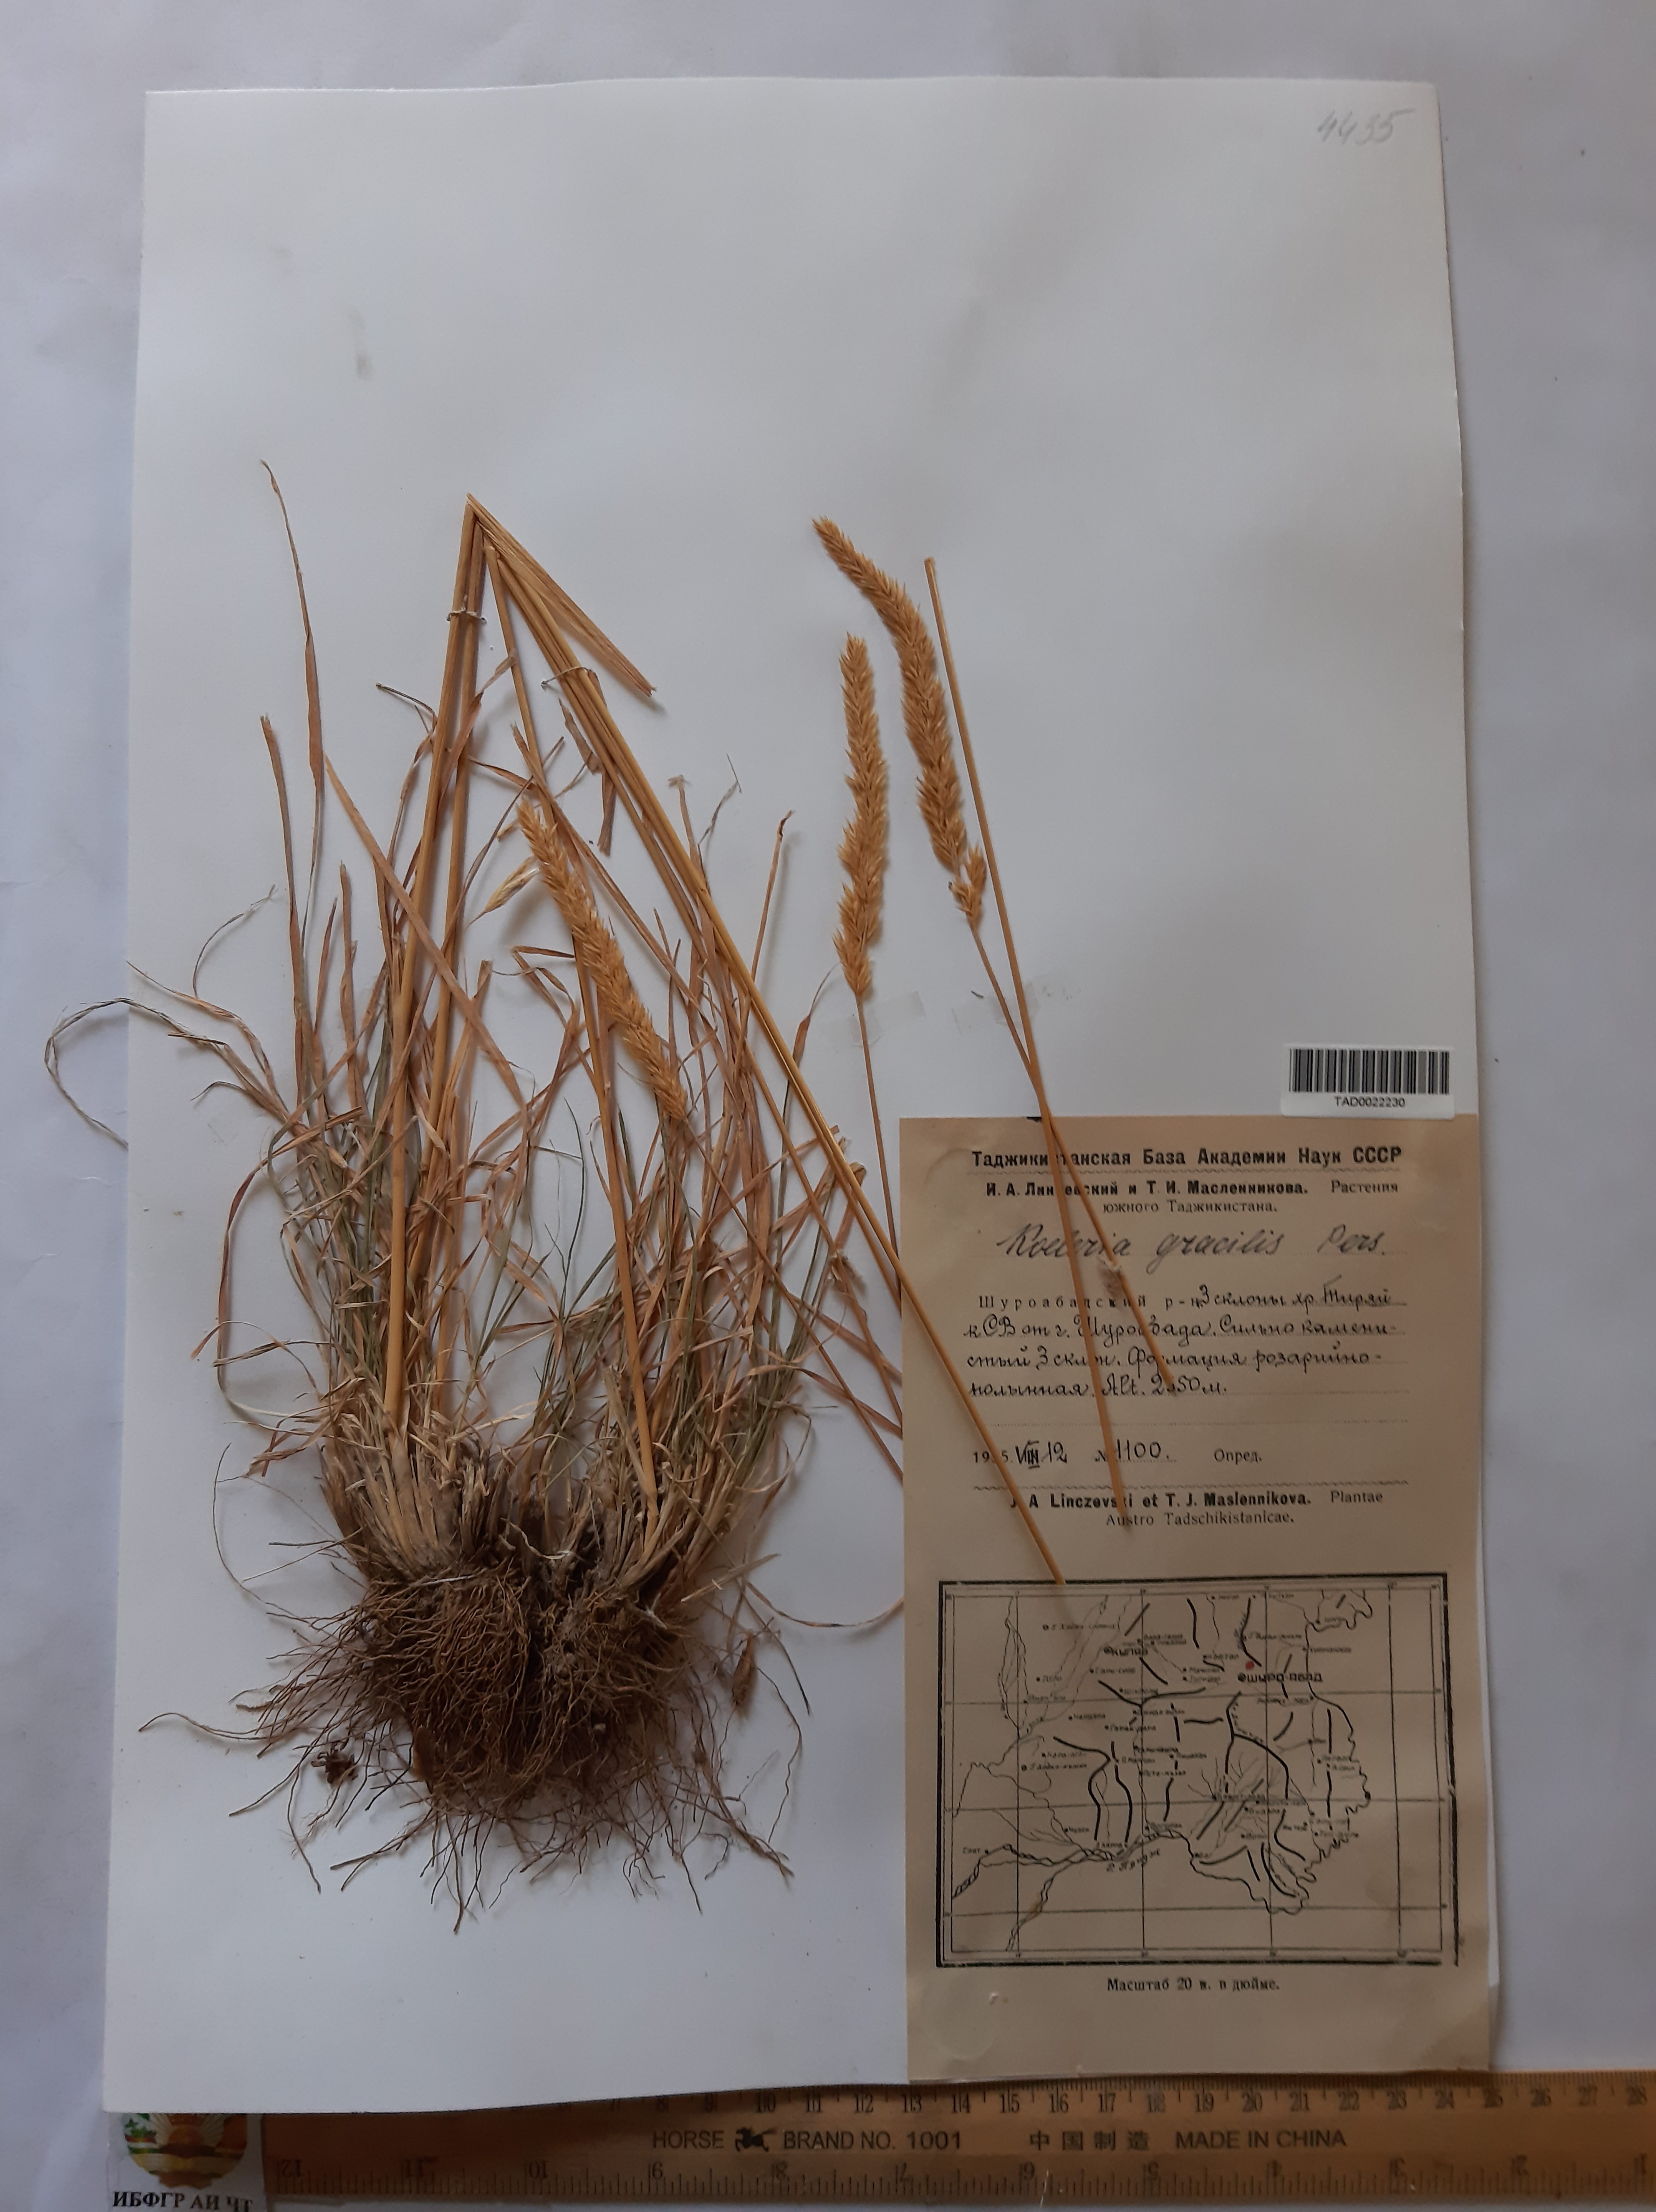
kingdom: Plantae
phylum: Tracheophyta
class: Liliopsida
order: Poales
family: Poaceae
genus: Koeleria
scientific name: Koeleria macrantha
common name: Crested hair-grass
